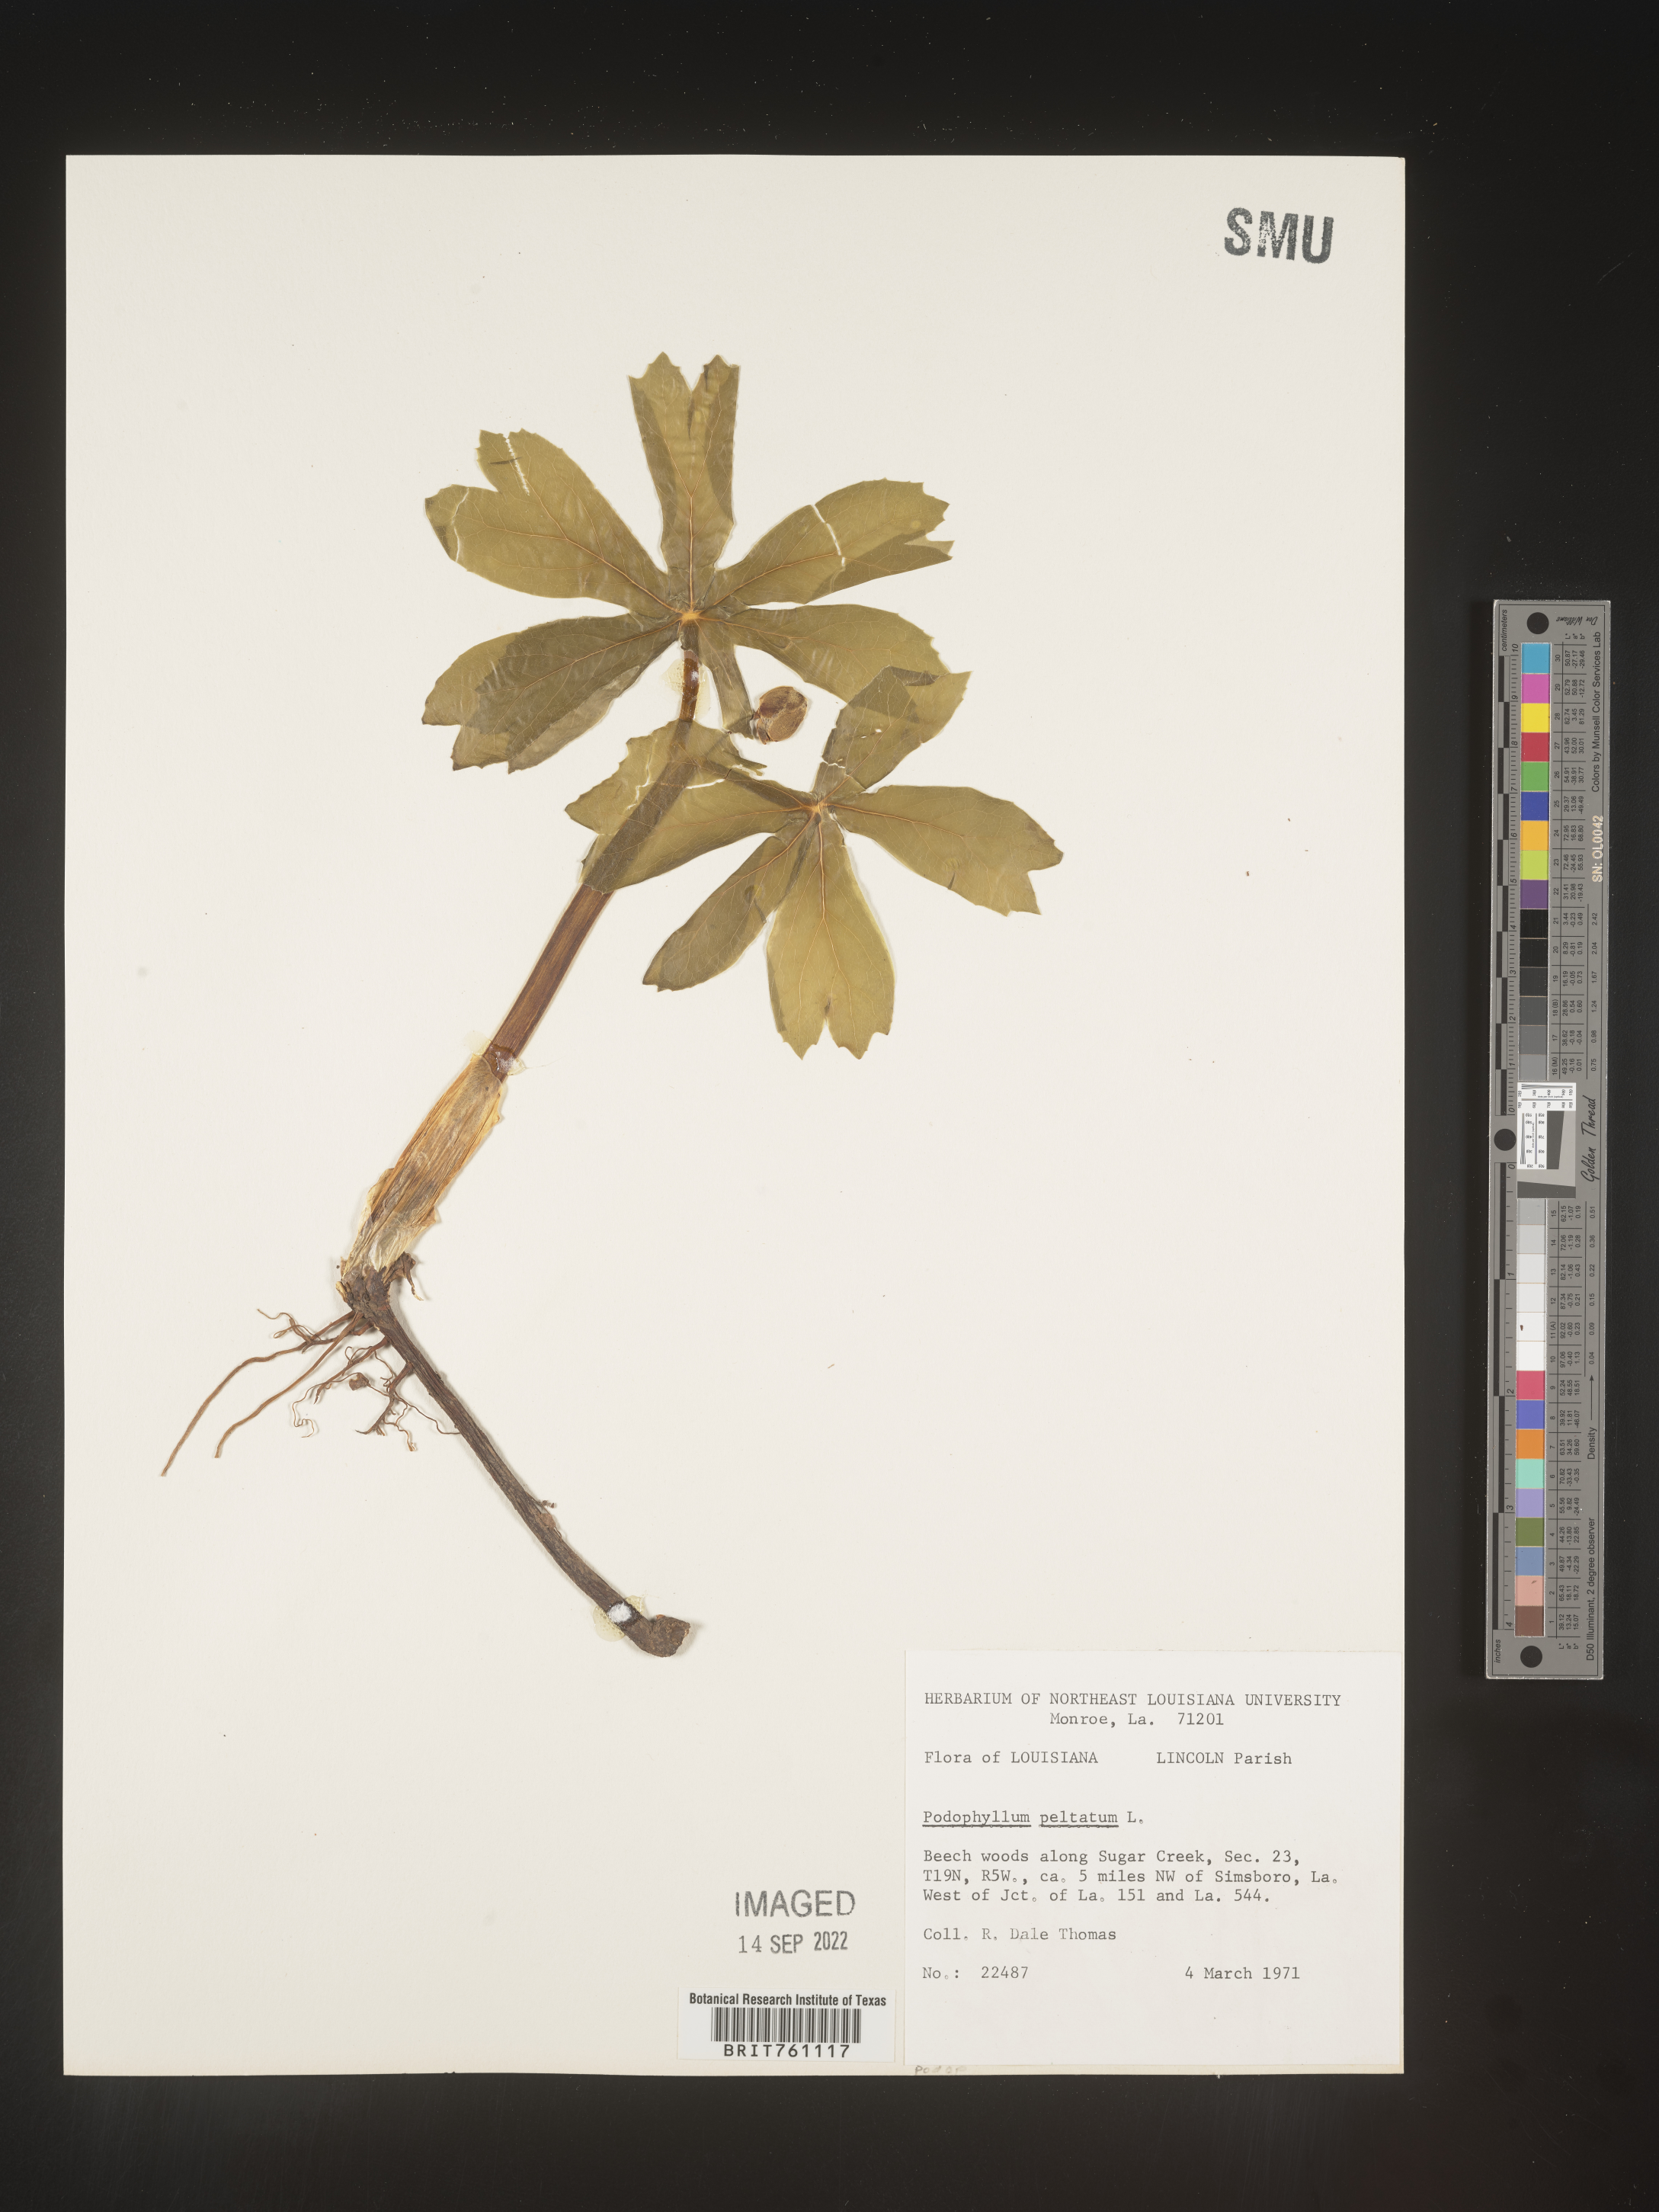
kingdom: Plantae
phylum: Tracheophyta
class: Magnoliopsida
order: Ranunculales
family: Berberidaceae
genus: Podophyllum
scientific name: Podophyllum peltatum
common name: Wild mandrake
